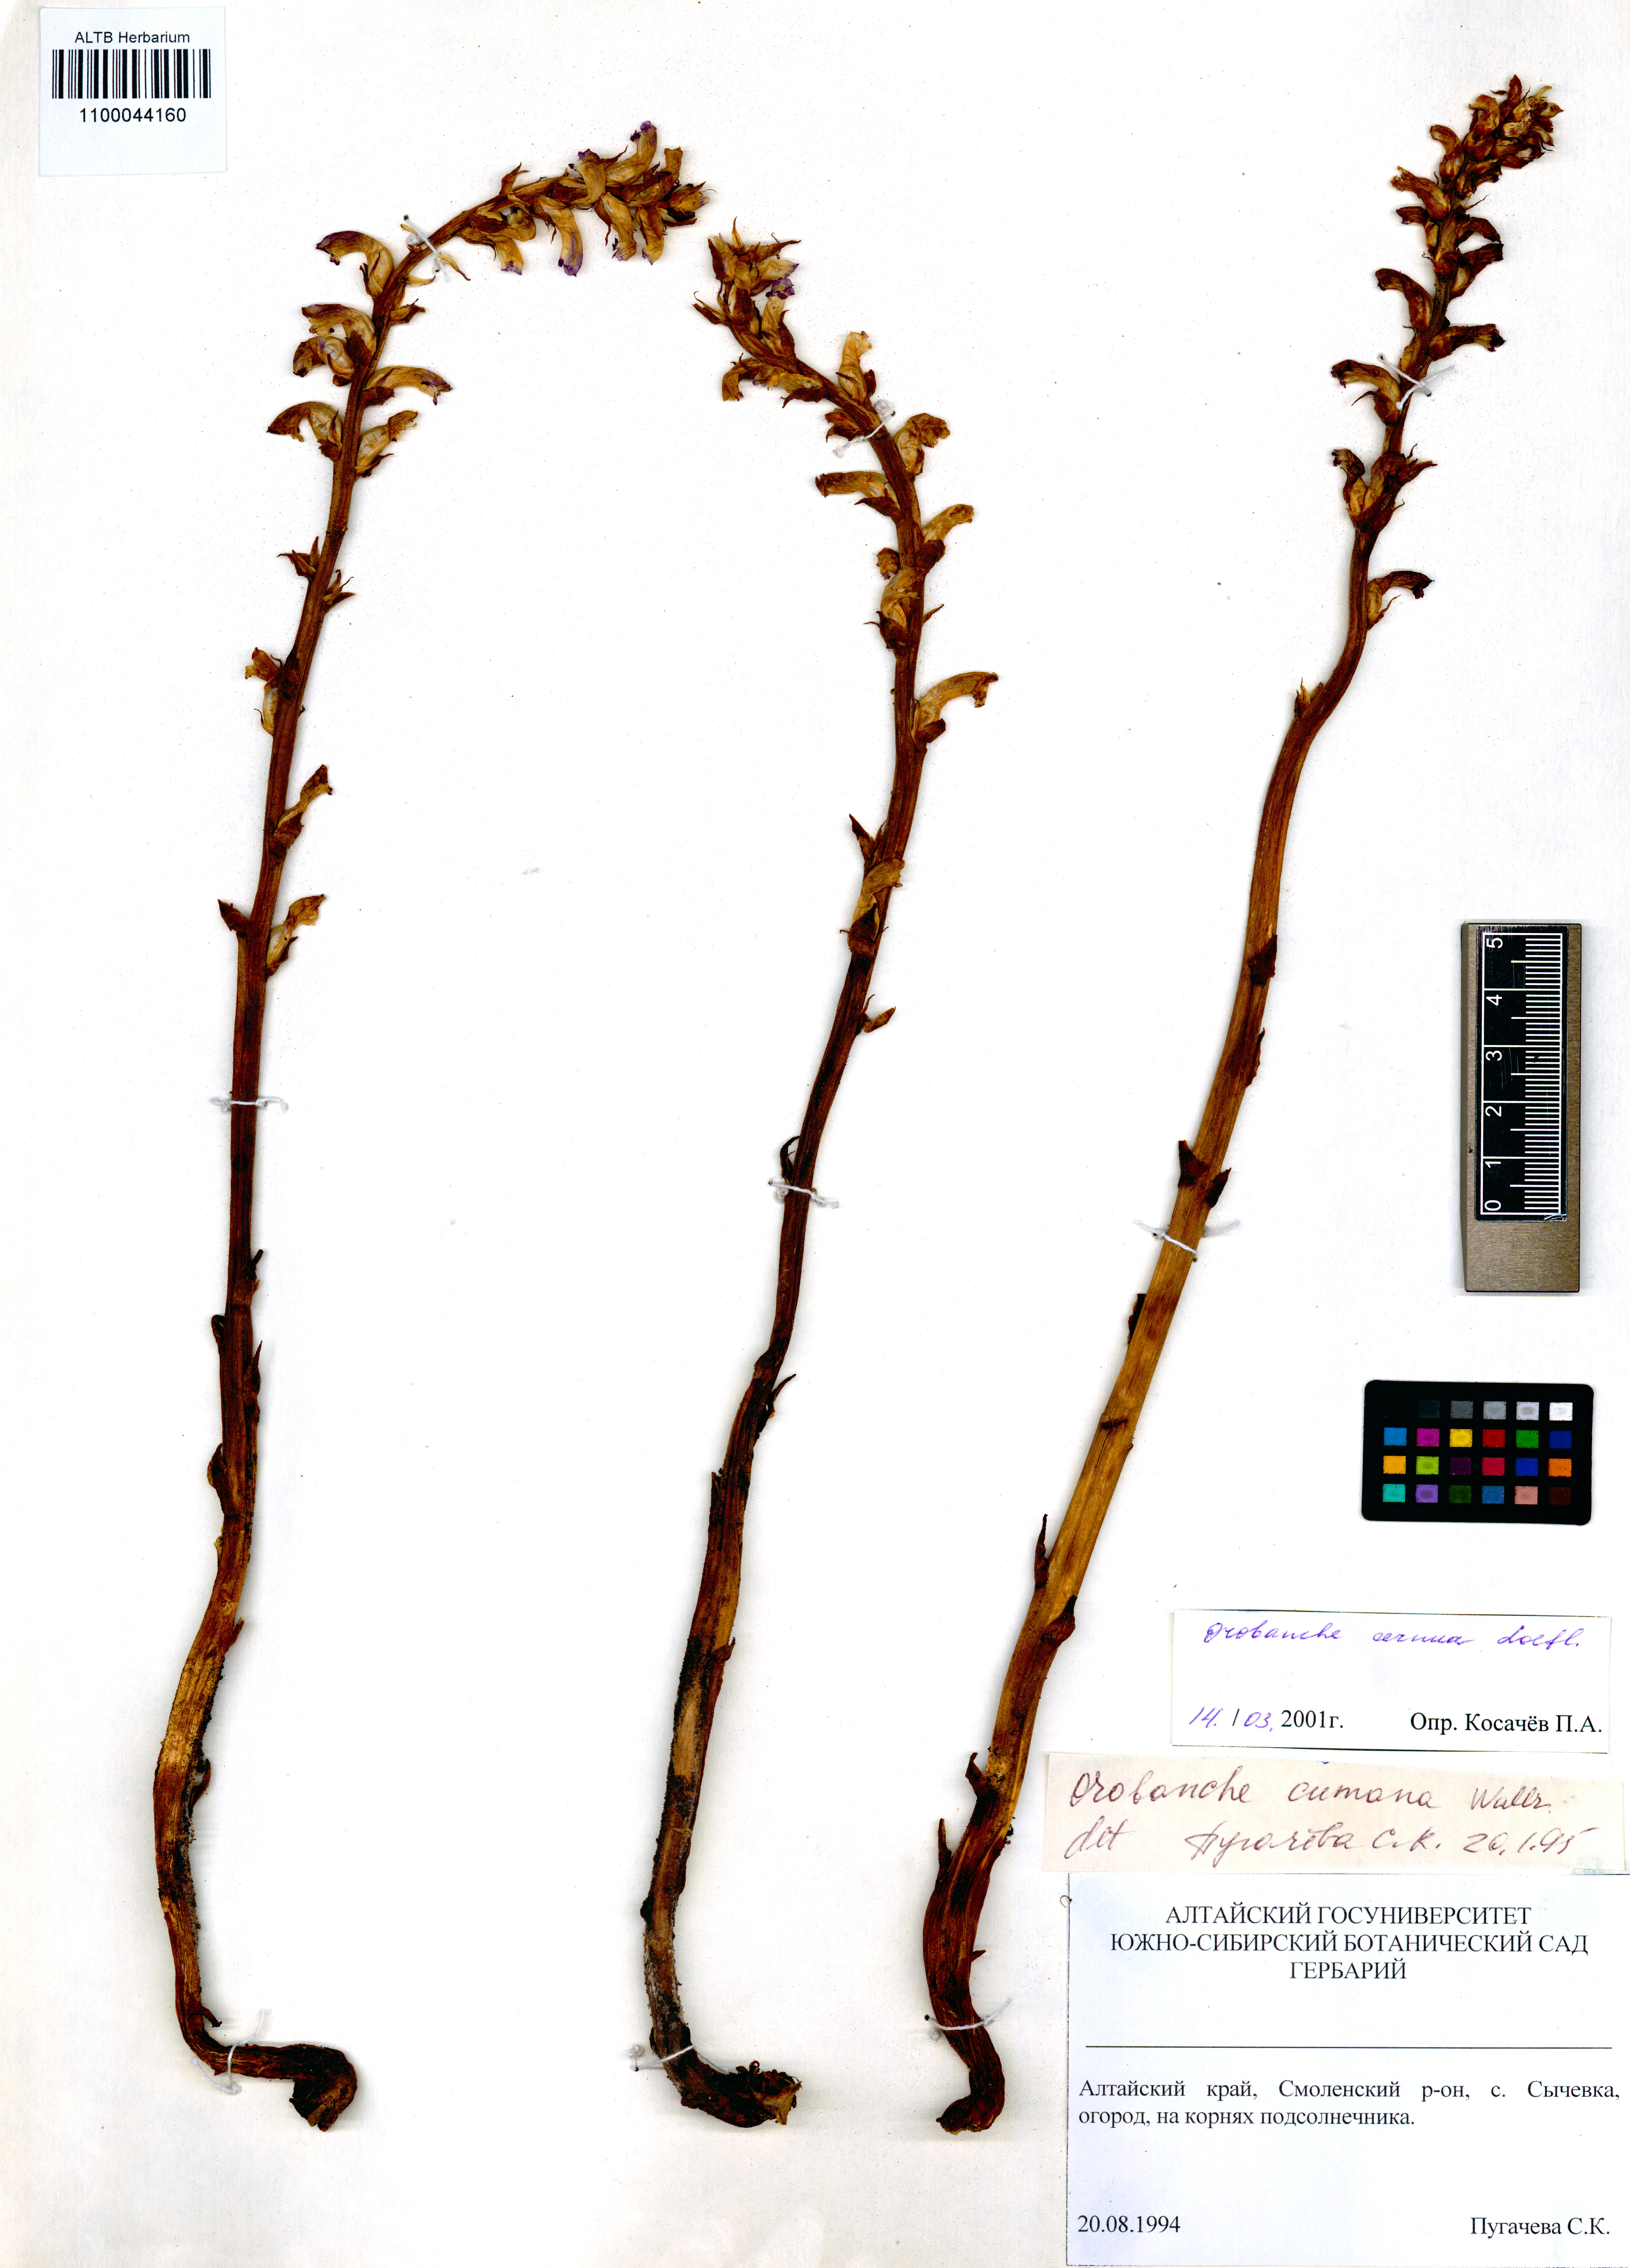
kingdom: Plantae
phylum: Tracheophyta
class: Magnoliopsida
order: Lamiales
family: Orobanchaceae
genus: Orobanche
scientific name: Orobanche cernua
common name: Australian broomrape
